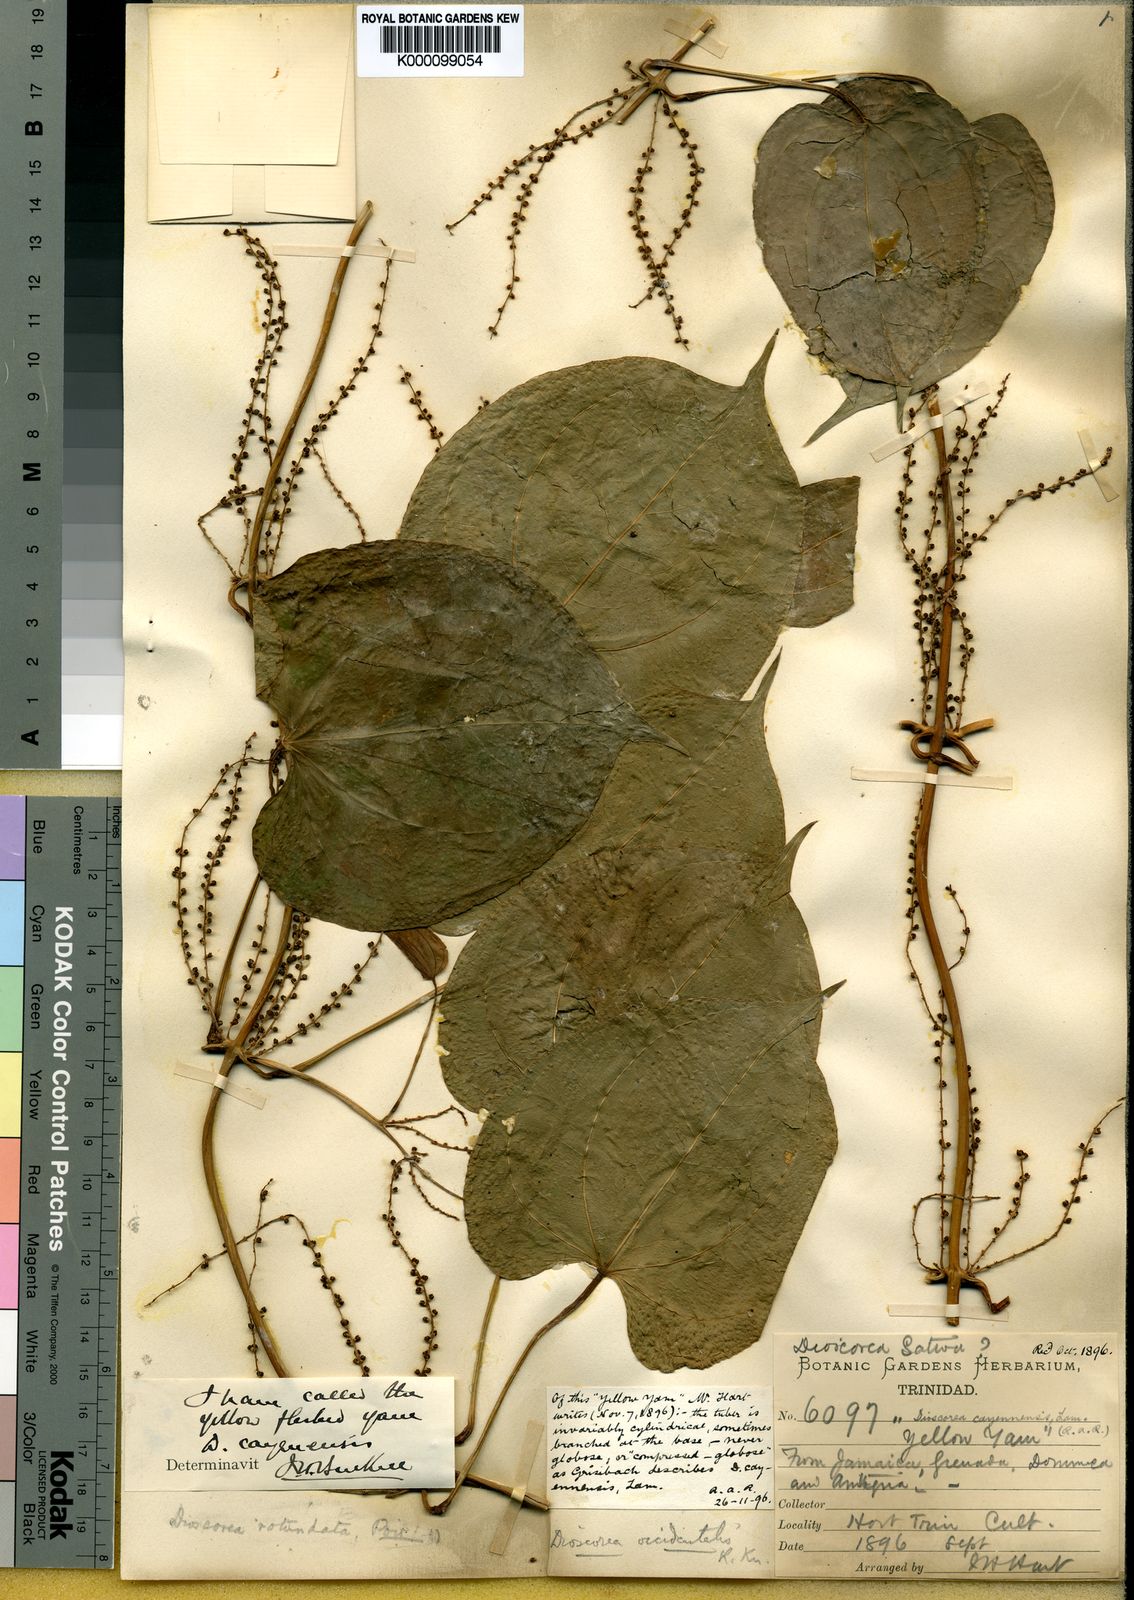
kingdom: Plantae
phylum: Tracheophyta
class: Liliopsida
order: Dioscoreales
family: Dioscoreaceae
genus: Dioscorea
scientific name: Dioscorea cayenensis
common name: Attoto yam
